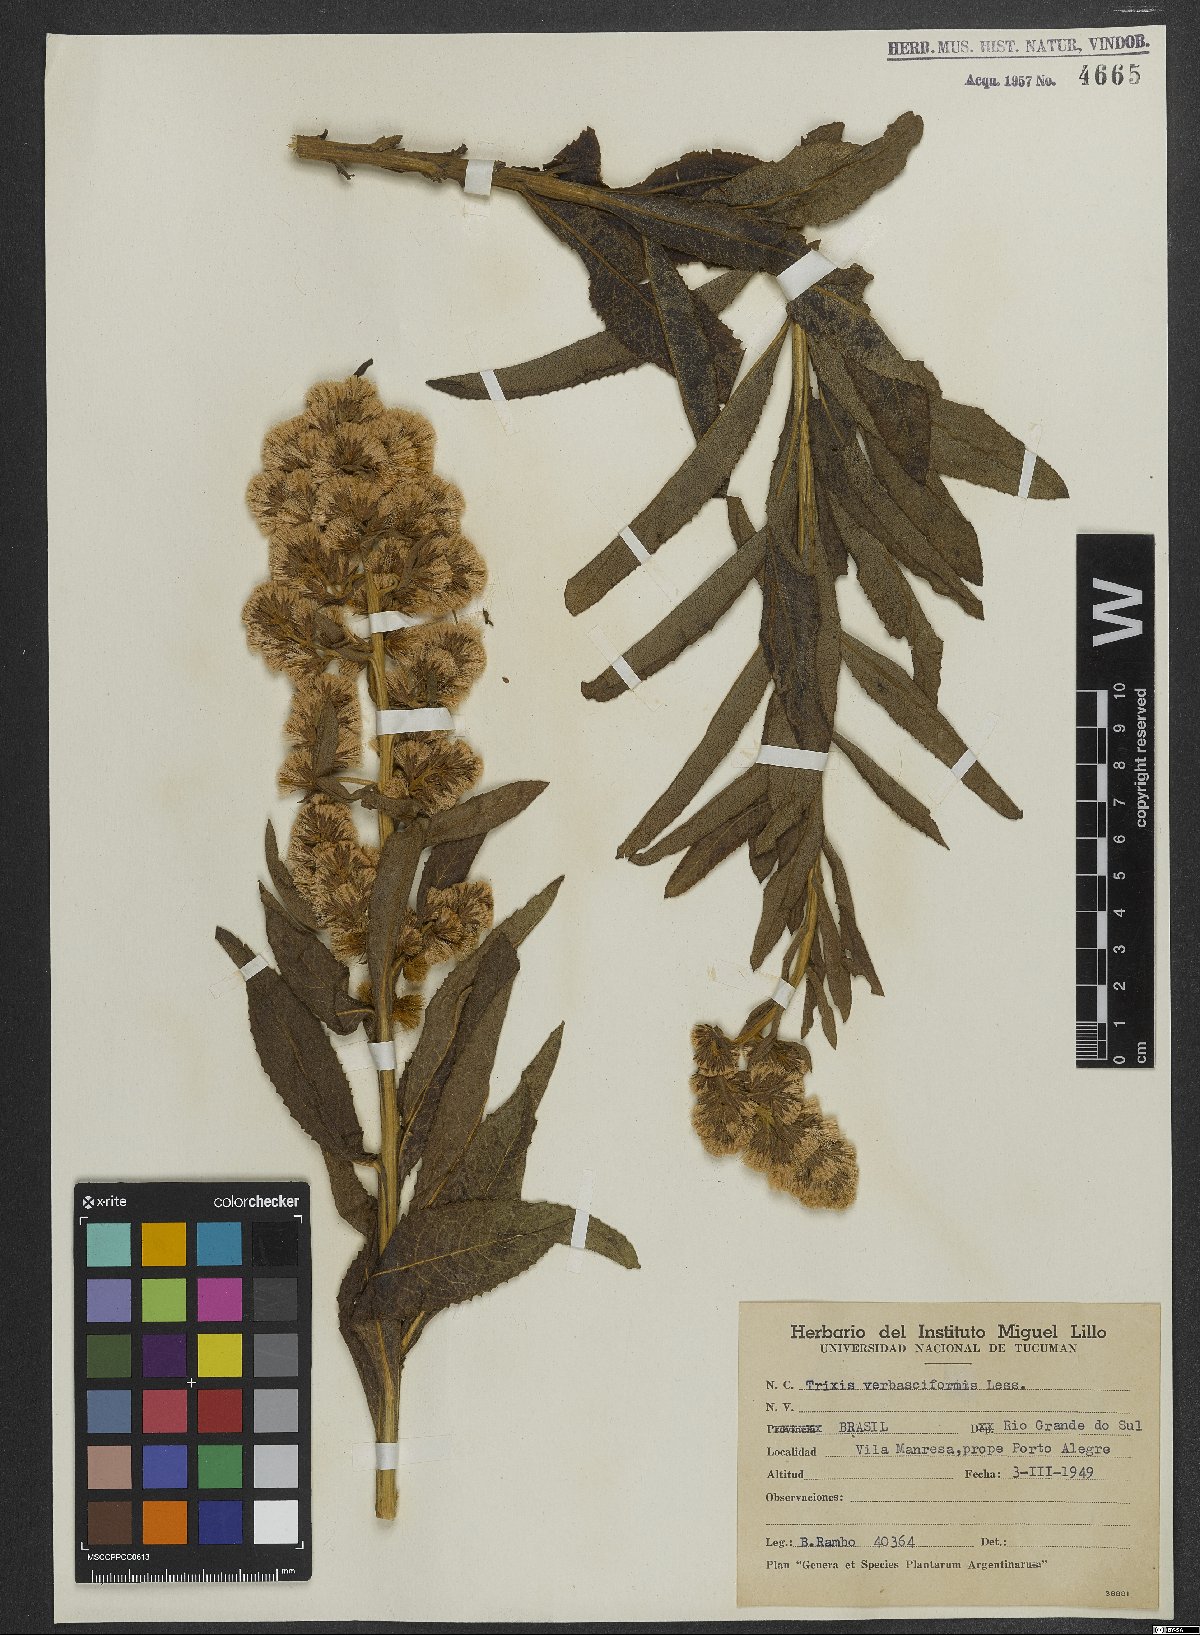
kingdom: Plantae
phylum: Tracheophyta
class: Magnoliopsida
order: Asterales
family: Asteraceae
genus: Trixis
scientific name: Trixis nobilis
